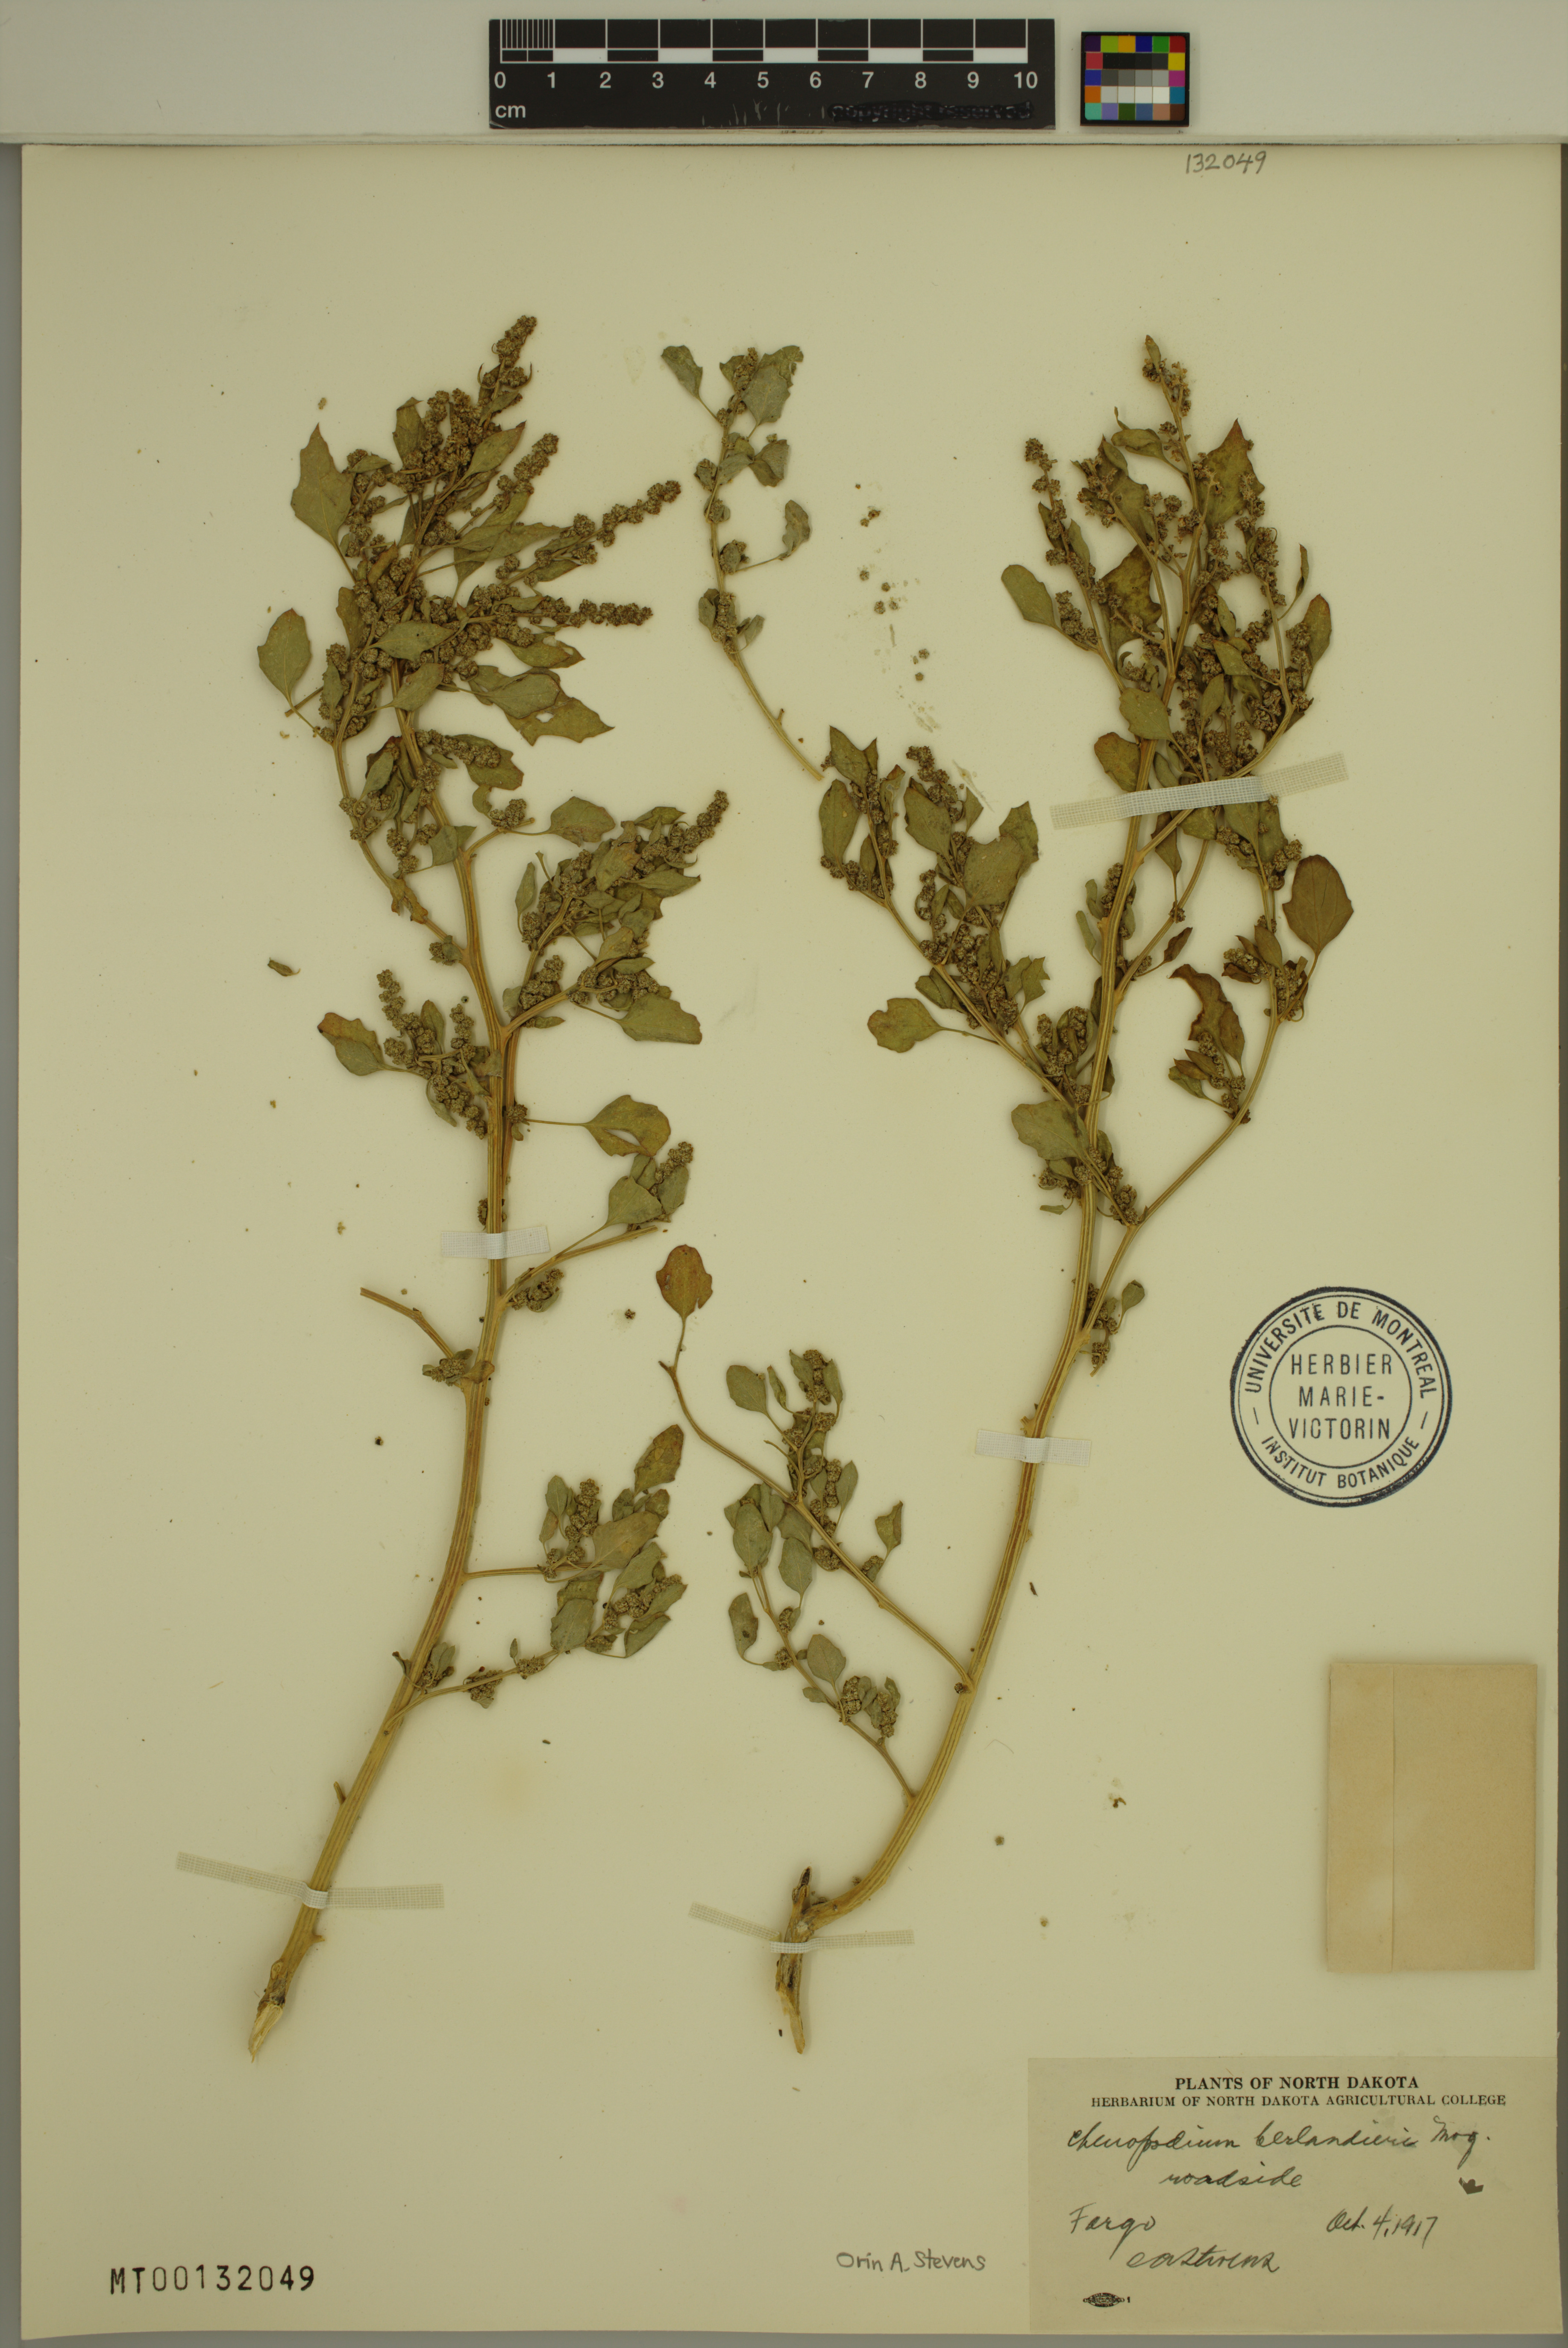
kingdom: Plantae
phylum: Tracheophyta
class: Magnoliopsida
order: Caryophyllales
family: Amaranthaceae
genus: Chenopodium
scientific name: Chenopodium berlandieri
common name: Pit-seed goosefoot
